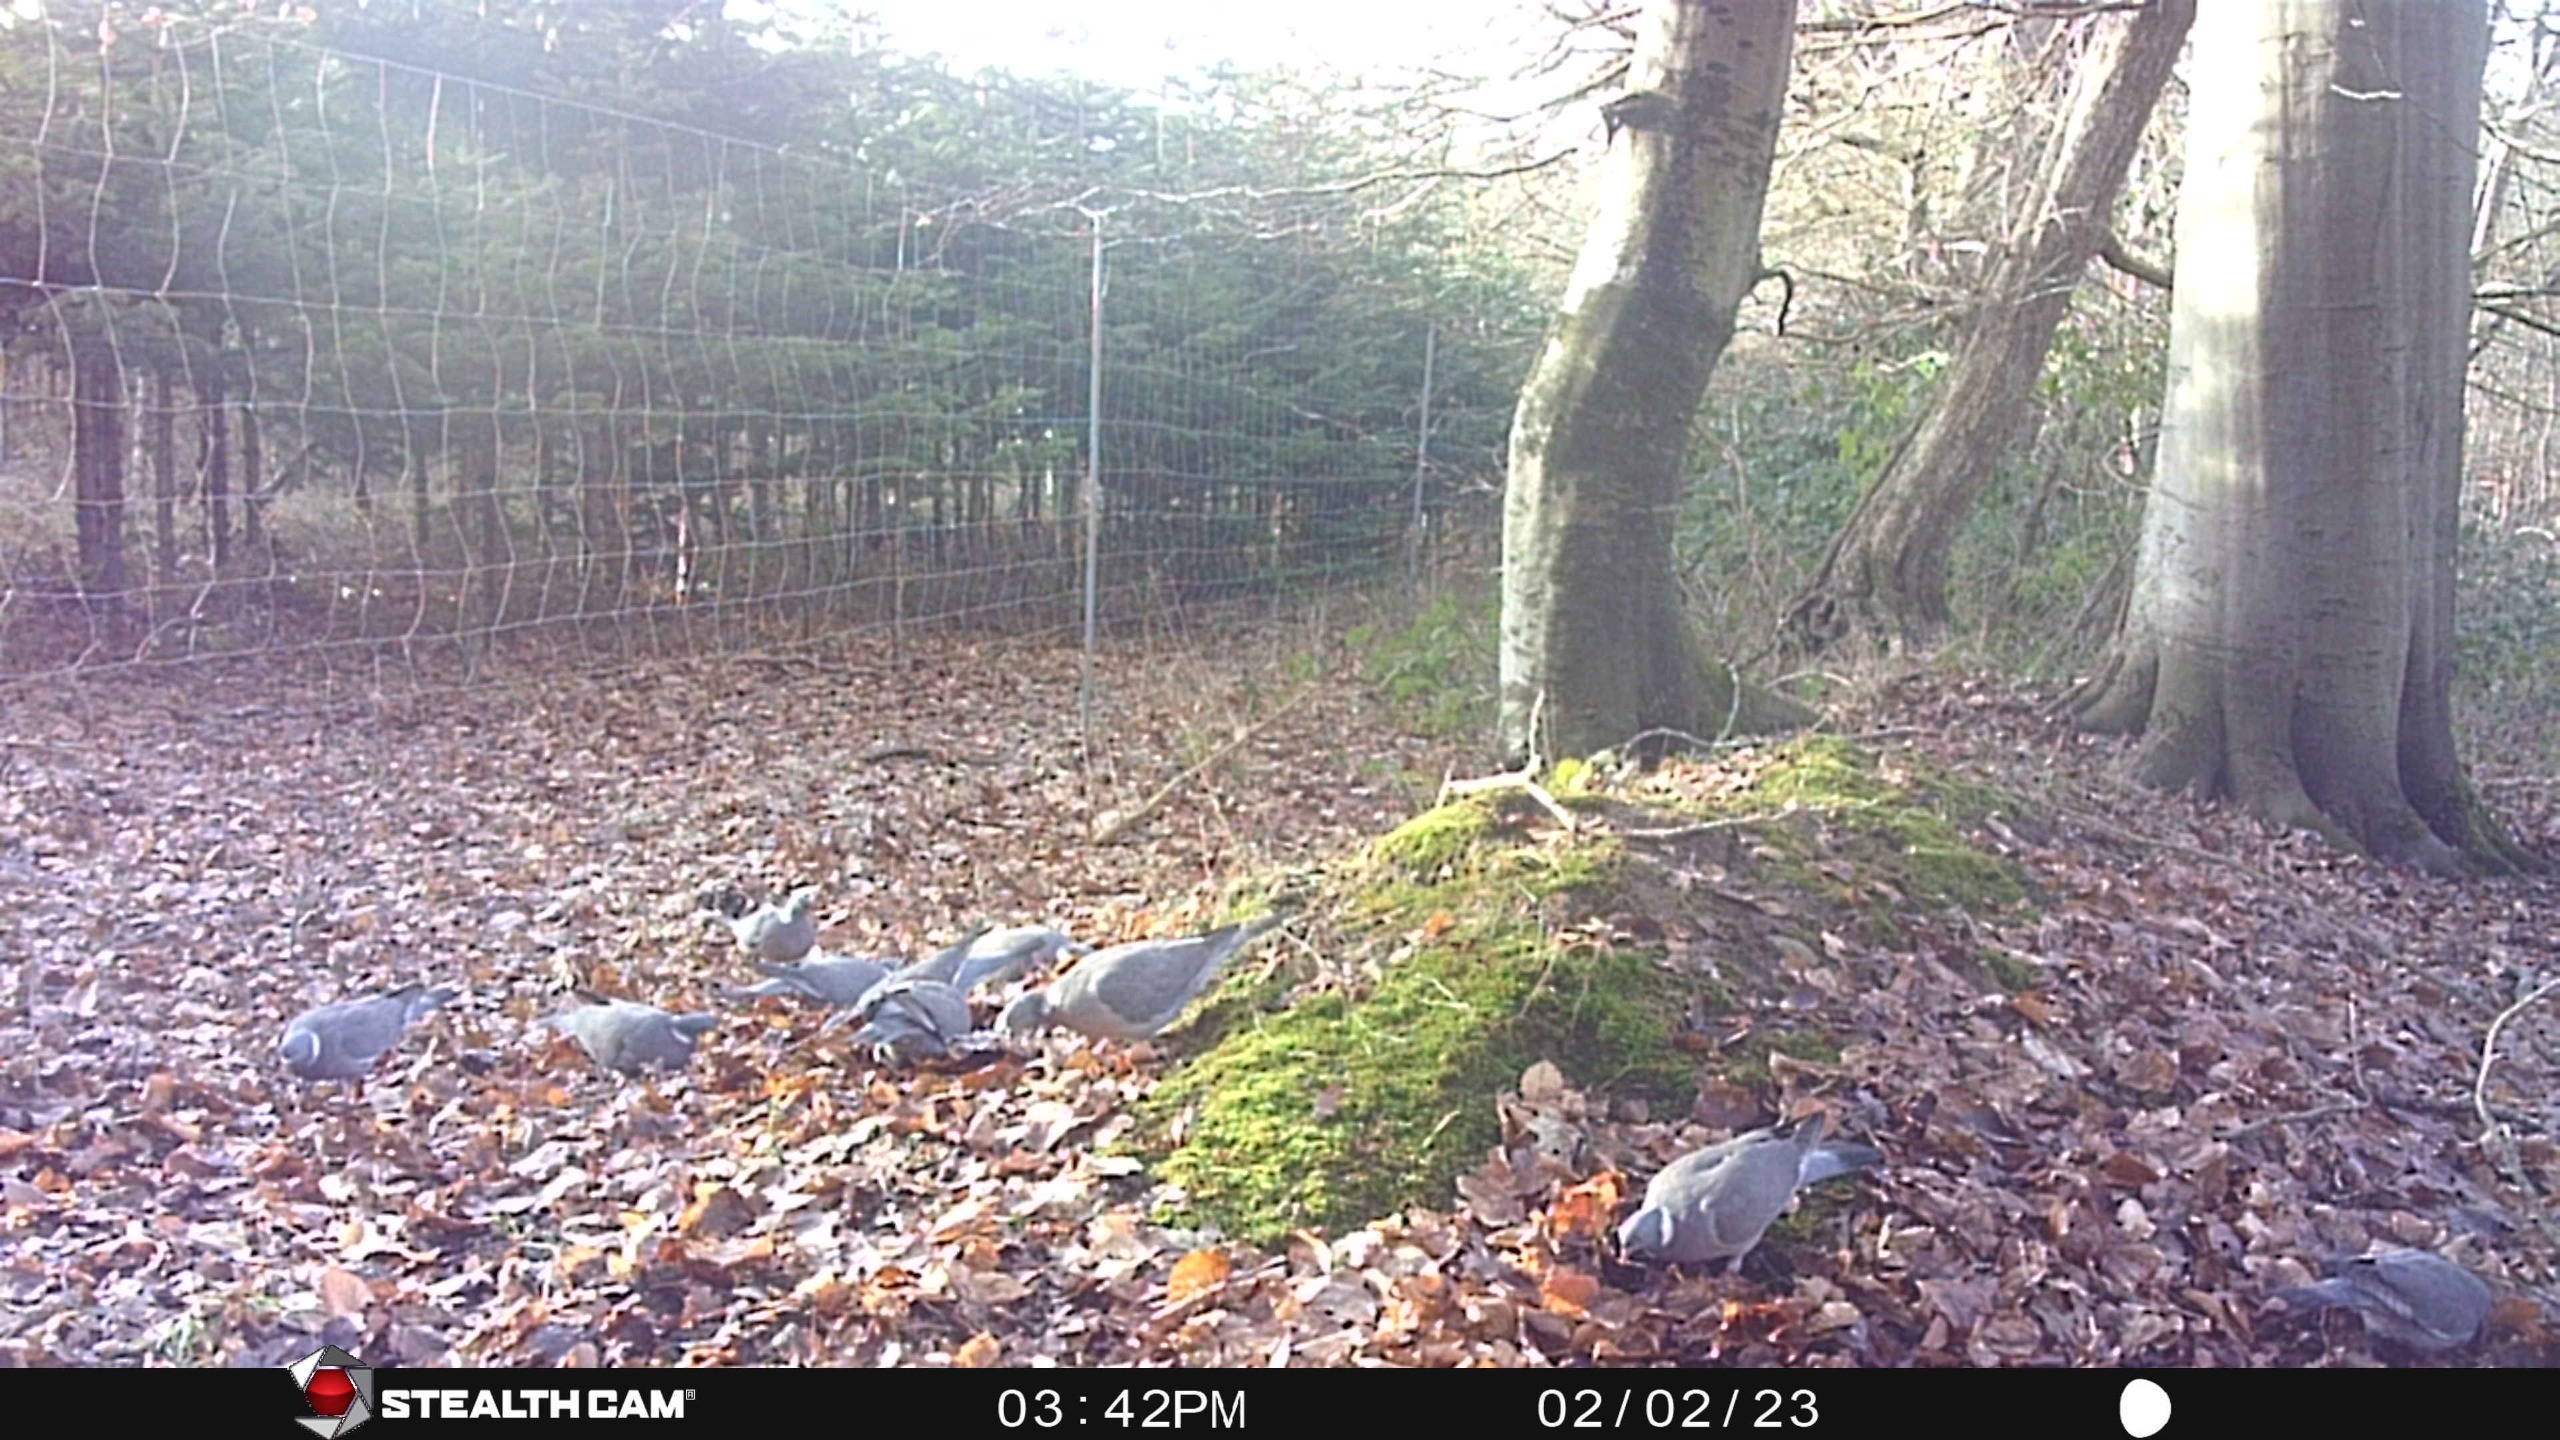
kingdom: Animalia
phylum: Chordata
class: Aves
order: Columbiformes
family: Columbidae
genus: Columba
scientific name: Columba palumbus
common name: Ringdue
